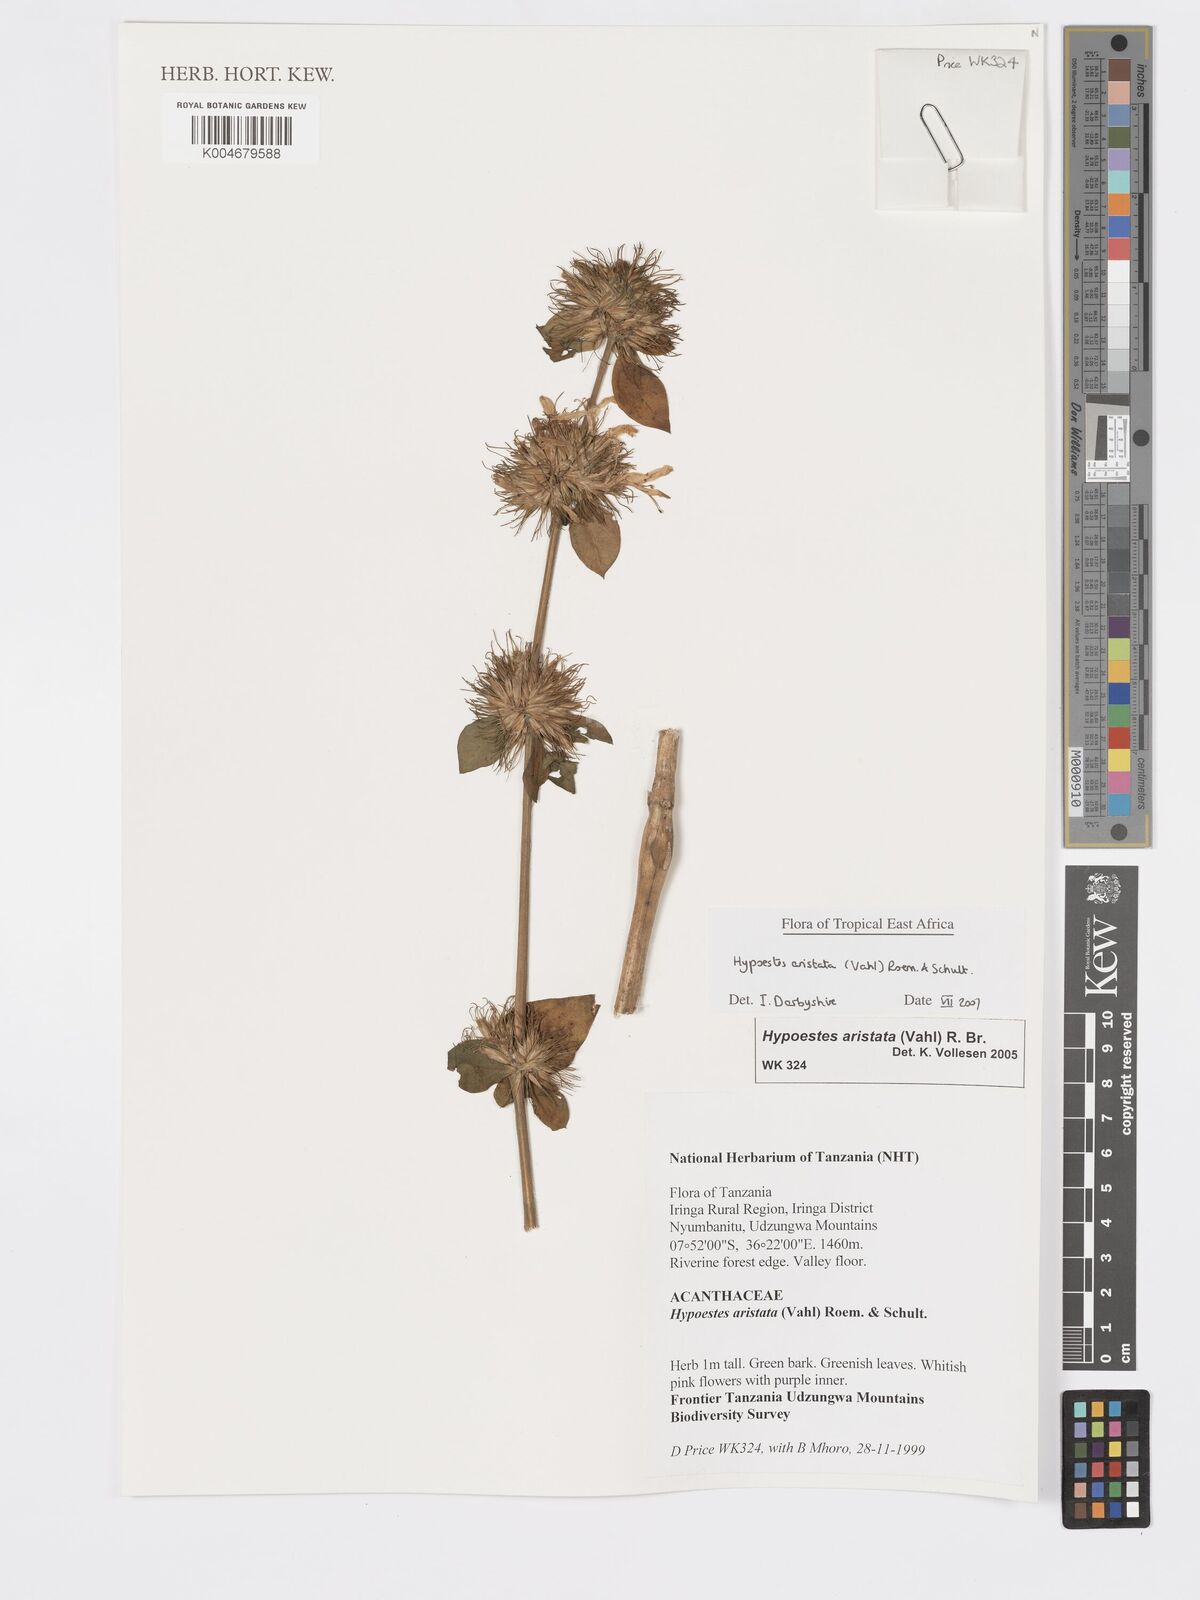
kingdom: Plantae
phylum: Tracheophyta
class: Magnoliopsida
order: Lamiales
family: Acanthaceae
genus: Hypoestes
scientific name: Hypoestes aristata
